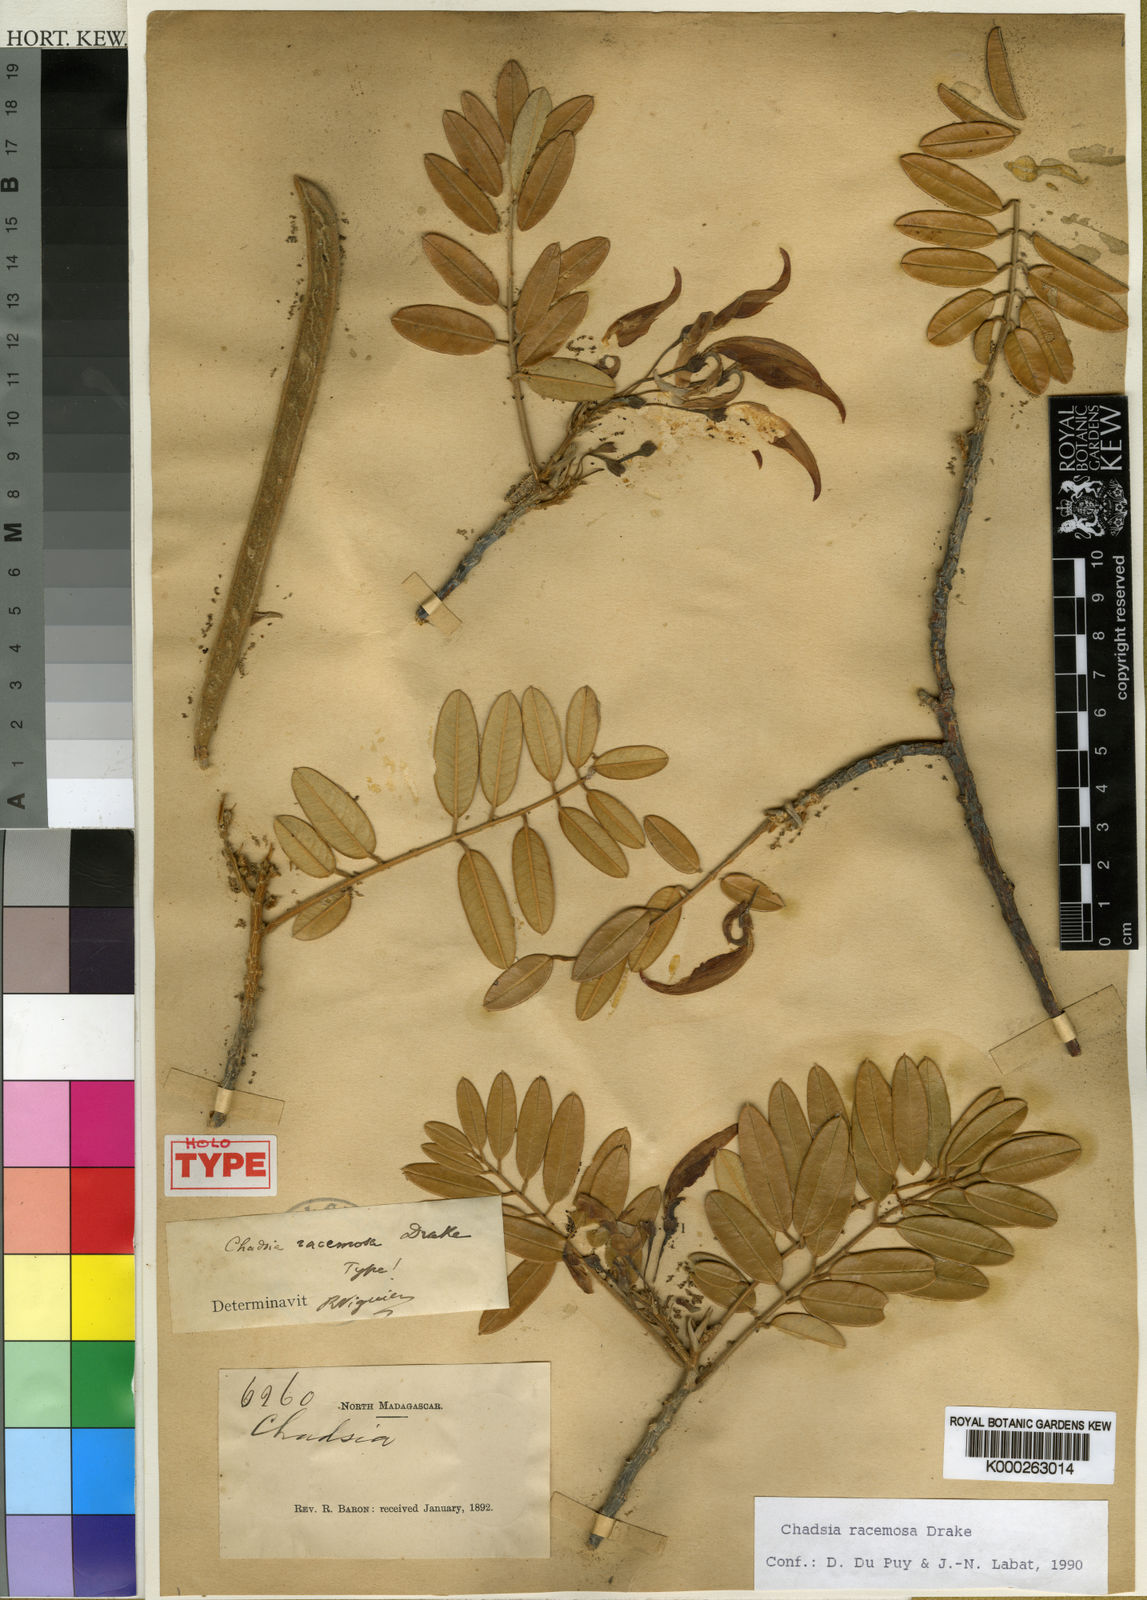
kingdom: Plantae
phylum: Tracheophyta
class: Magnoliopsida
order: Fabales
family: Fabaceae
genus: Chadsia
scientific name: Chadsia racemosa
